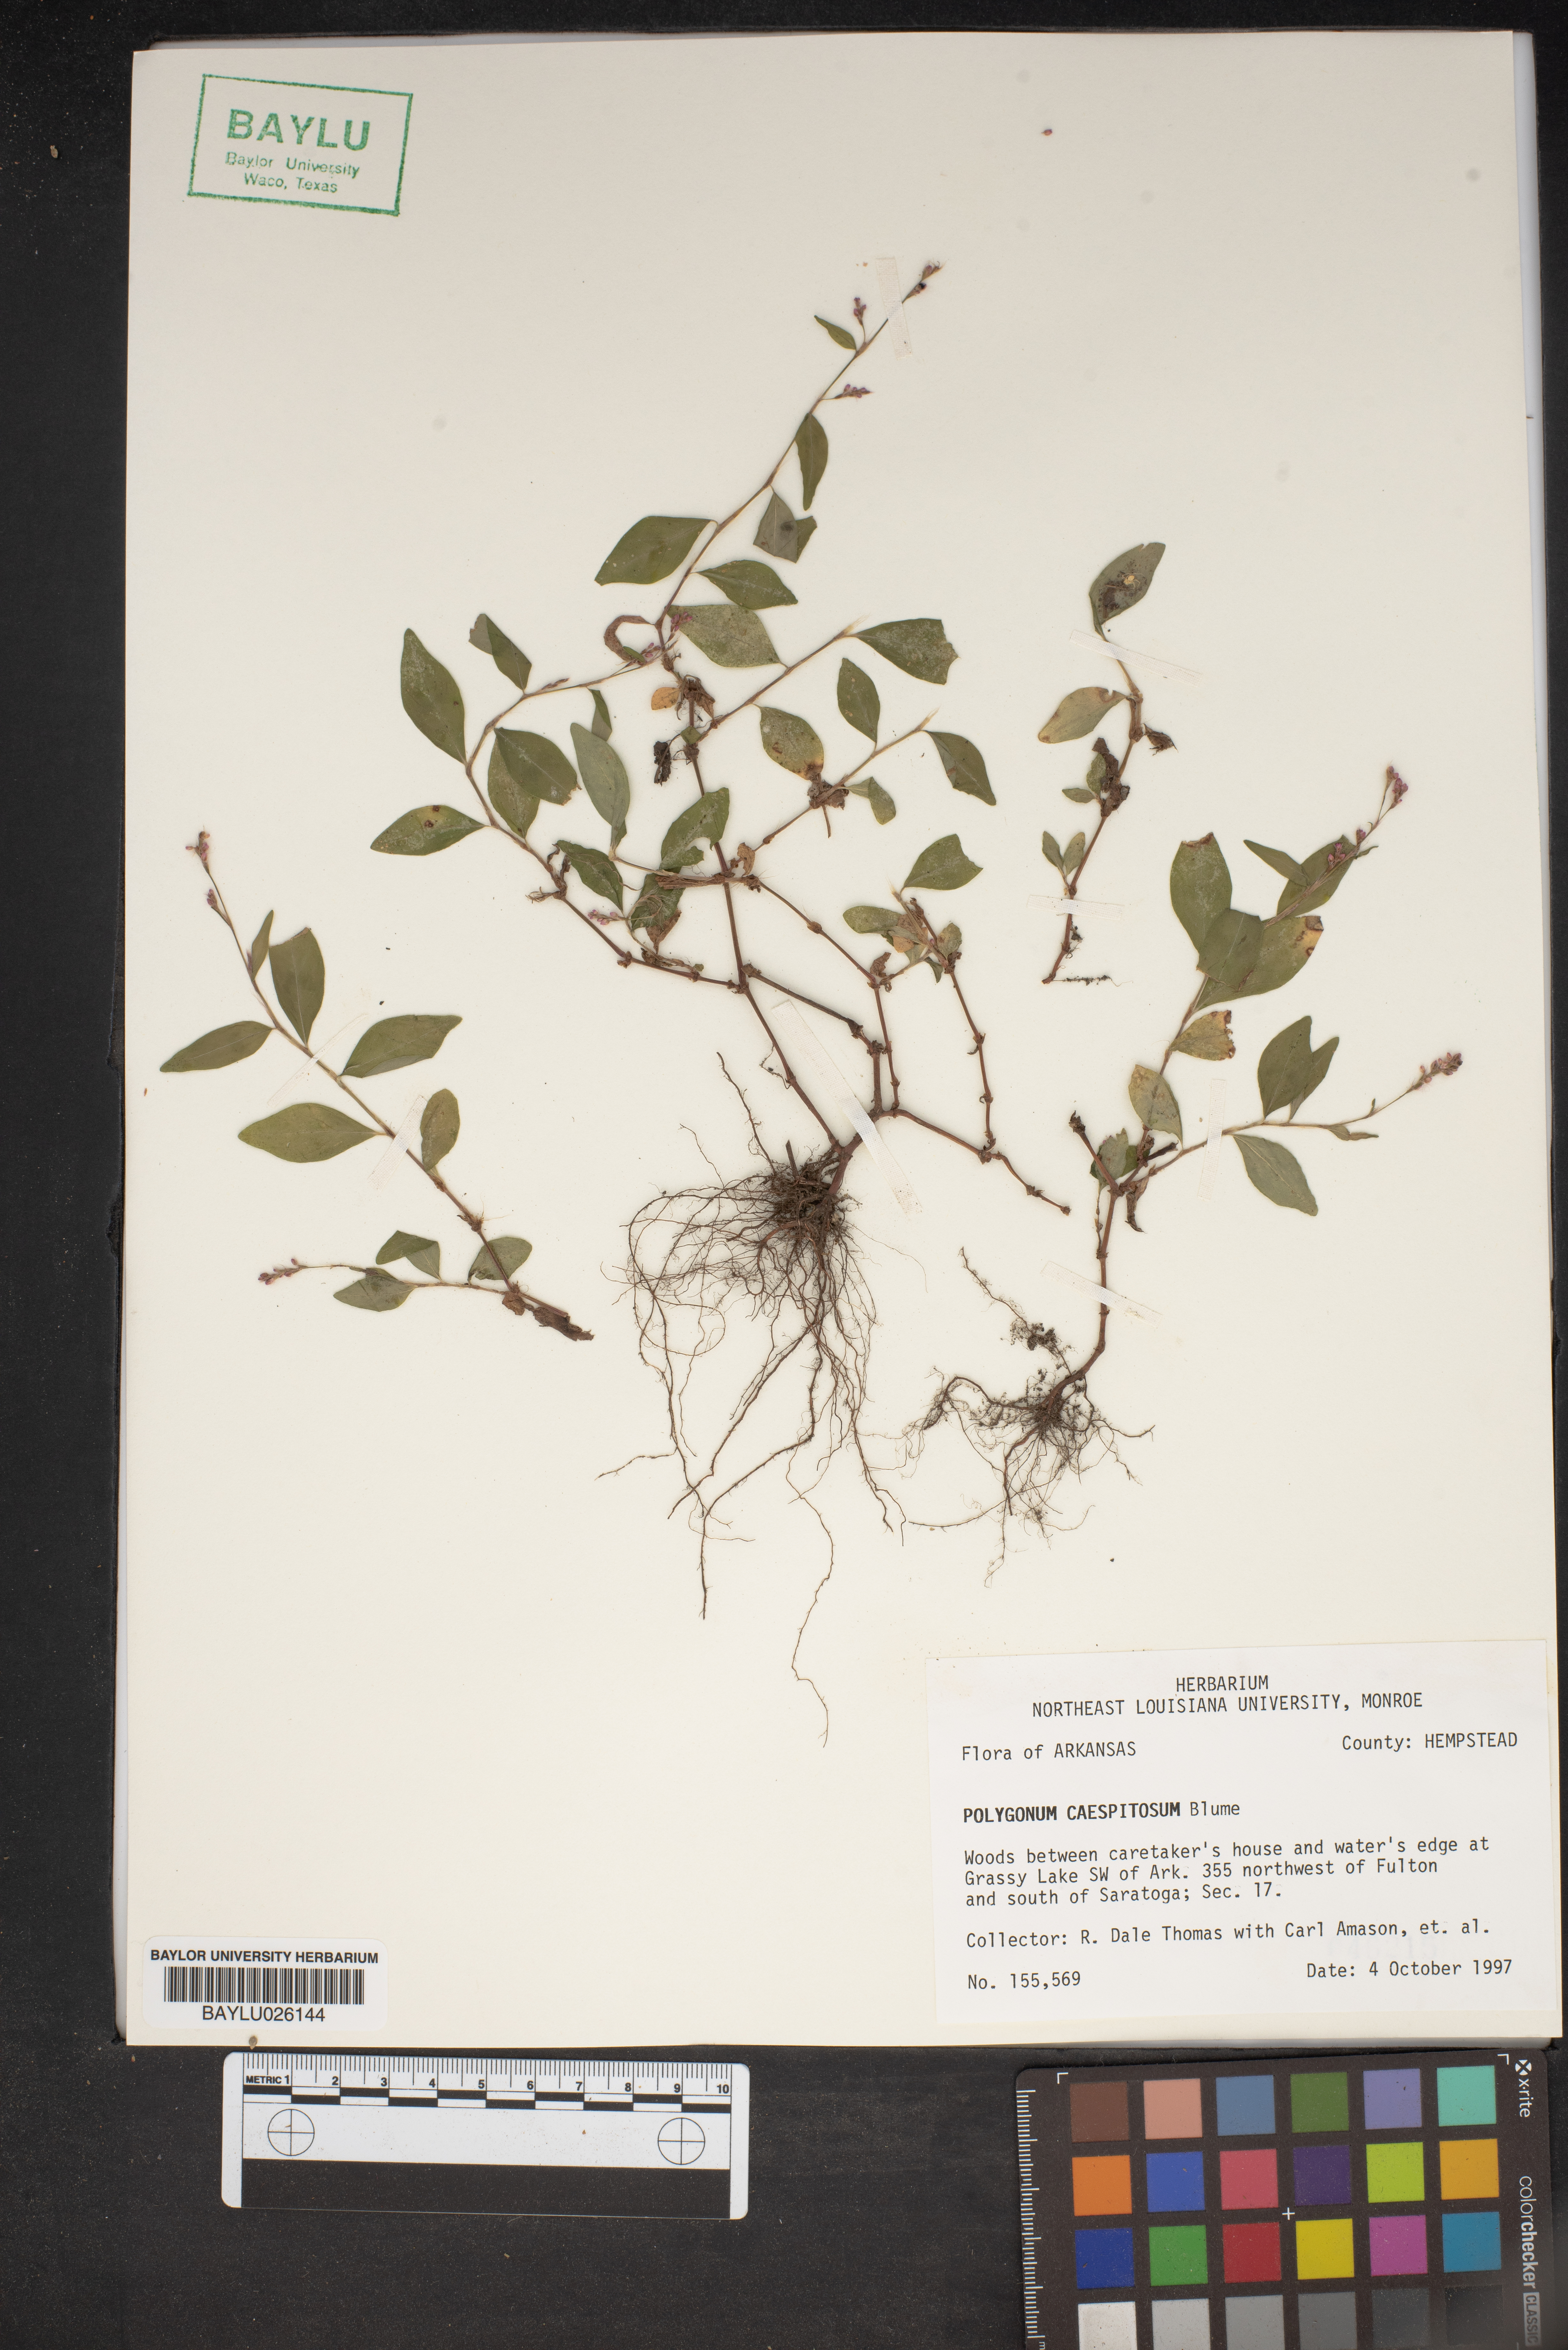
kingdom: Plantae
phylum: Tracheophyta
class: Magnoliopsida
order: Caryophyllales
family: Polygonaceae
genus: Persicaria
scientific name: Persicaria posumbu
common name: Oriental lady's thumb
